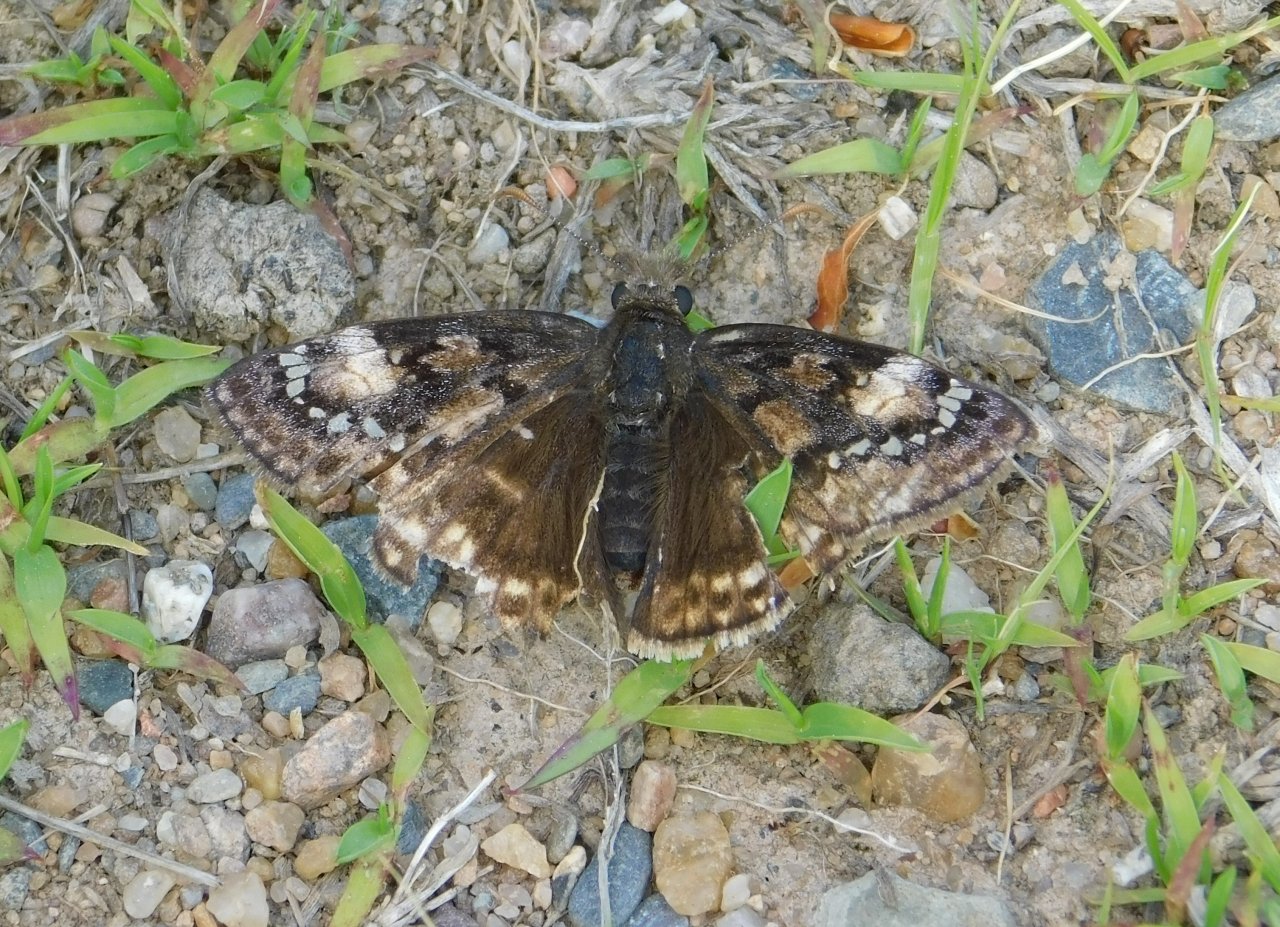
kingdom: Animalia
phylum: Arthropoda
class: Insecta
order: Lepidoptera
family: Hesperiidae
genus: Gesta
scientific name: Gesta
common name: Juvenal's Duskywing
